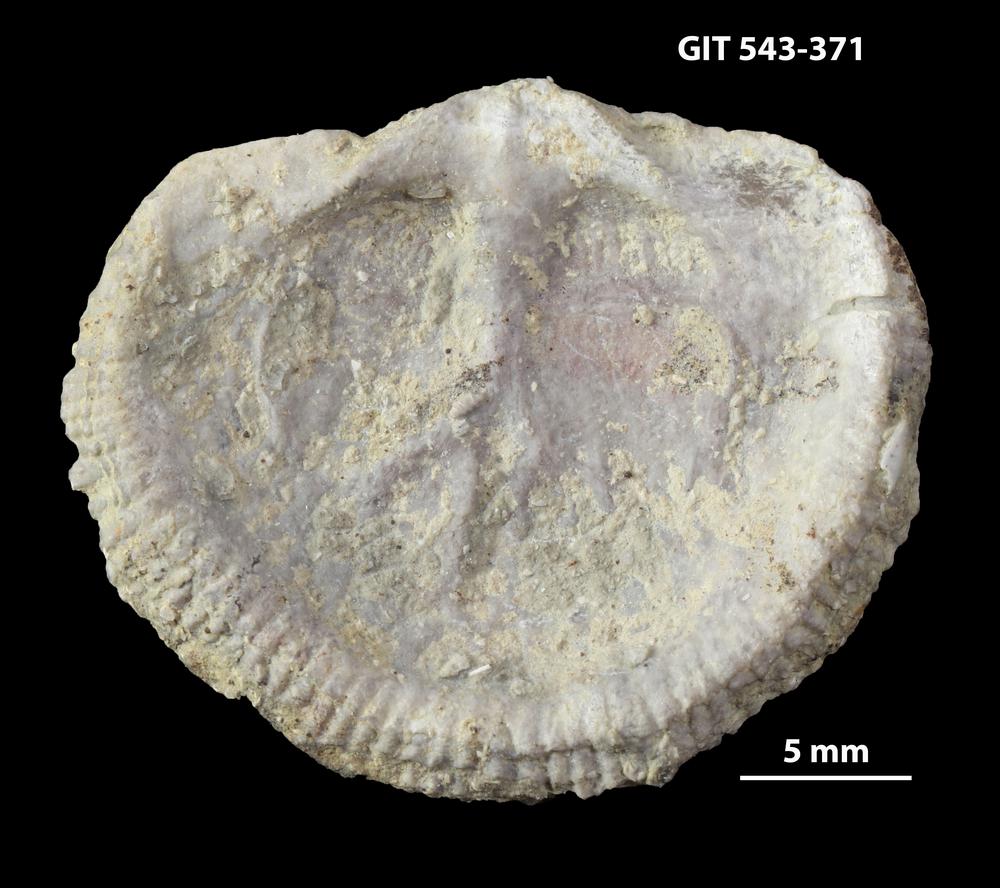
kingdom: Animalia
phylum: Brachiopoda
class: Rhynchonellata
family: Clitambonitidae
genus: Clitambonites
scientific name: Clitambonites Orthisina schmidti
